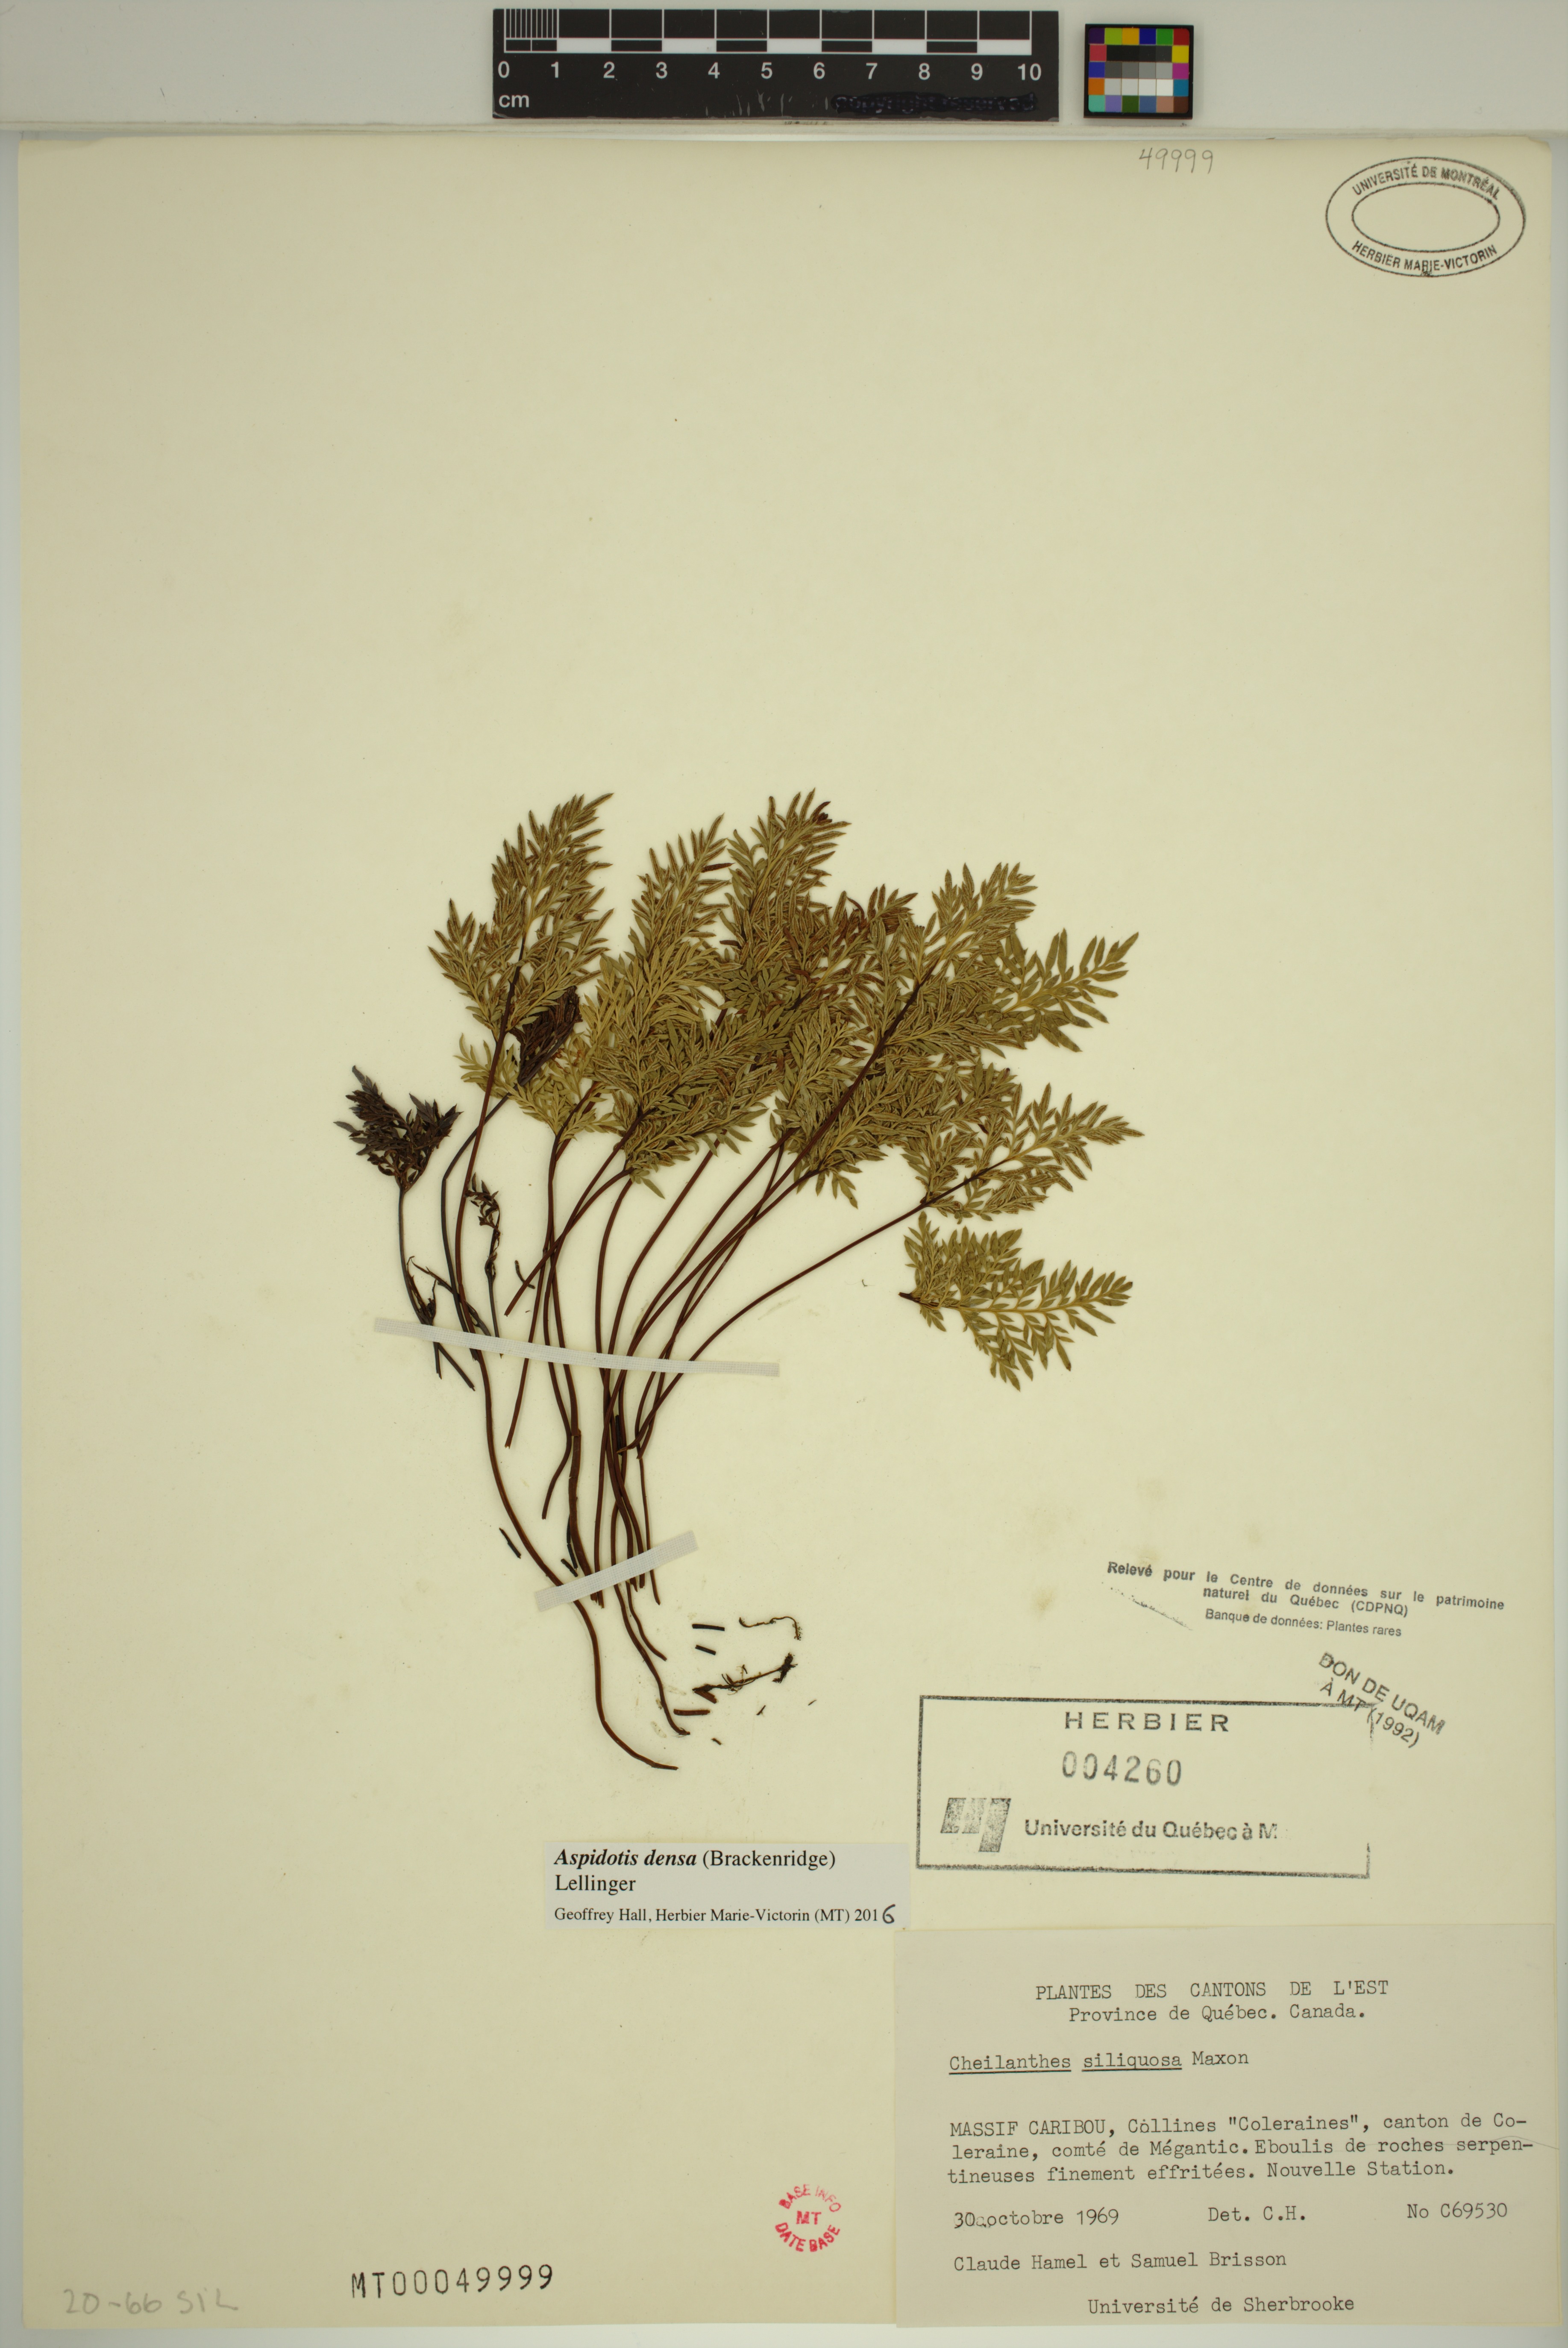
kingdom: Plantae
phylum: Tracheophyta
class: Polypodiopsida
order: Polypodiales
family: Pteridaceae
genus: Aspidotis
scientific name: Aspidotis densa
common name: Indian's dream
